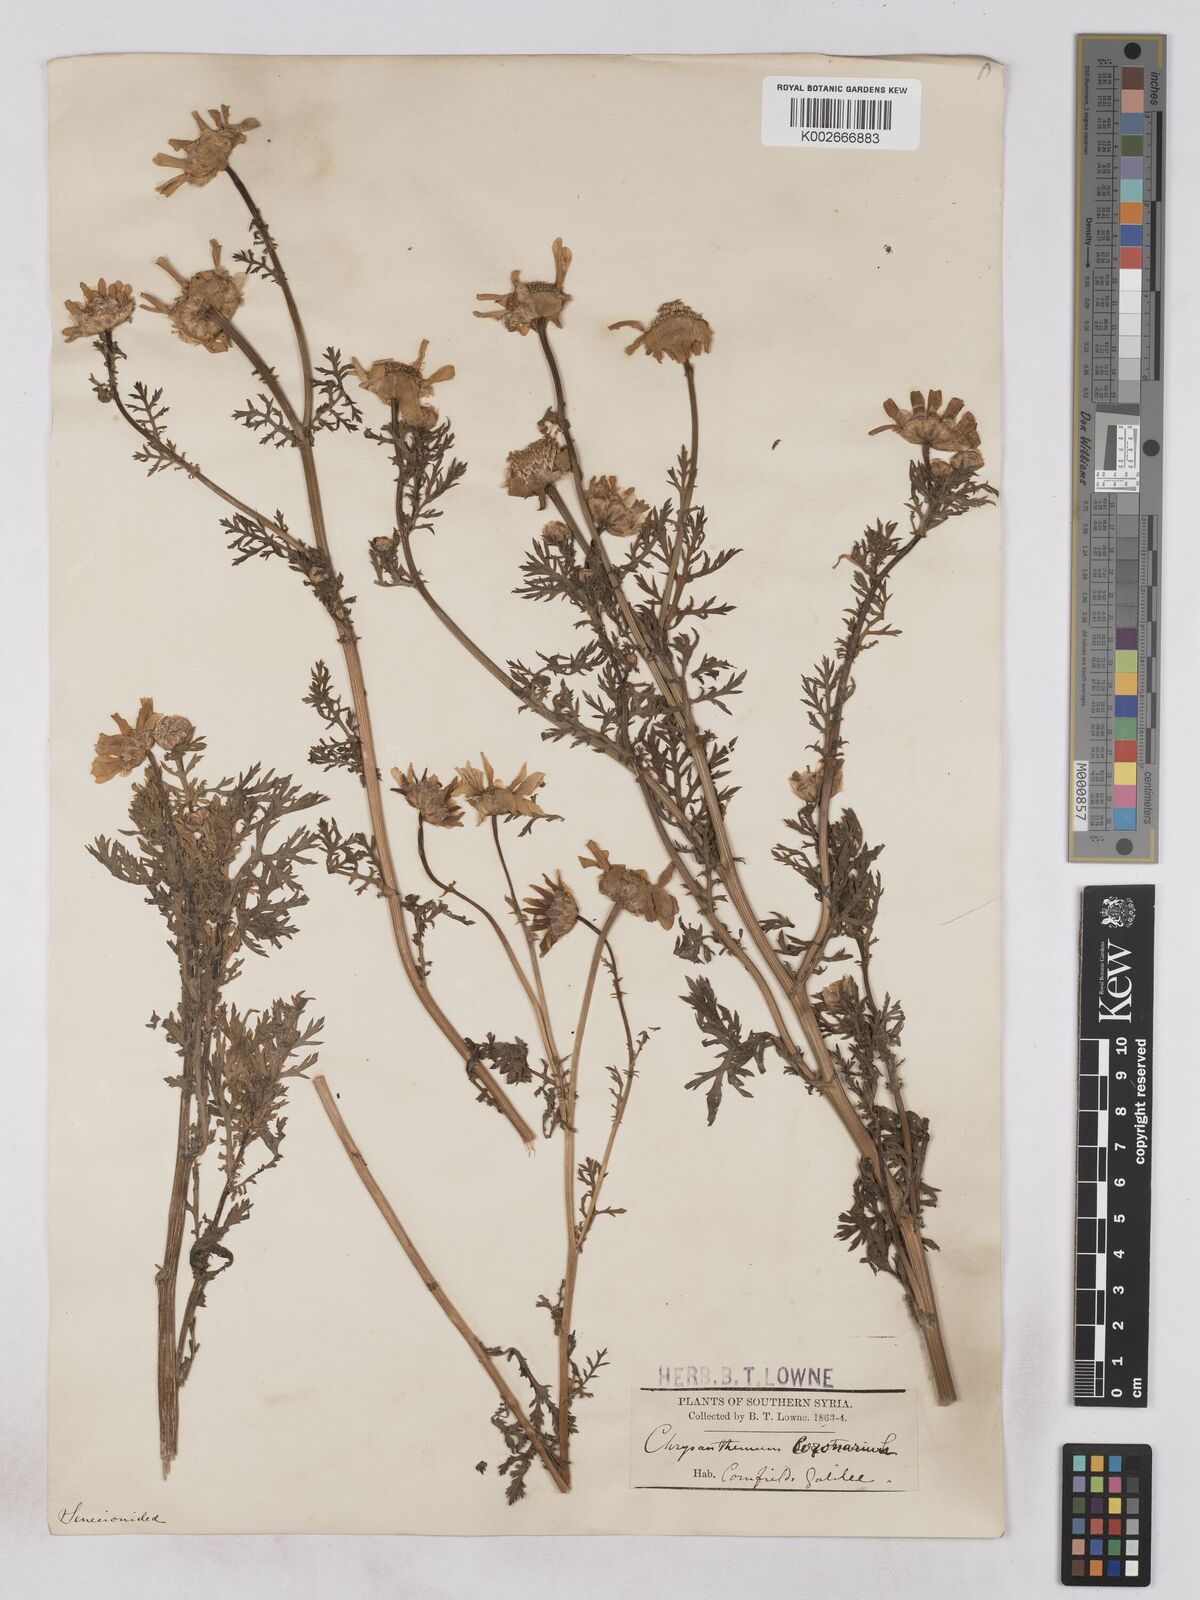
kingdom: Plantae
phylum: Tracheophyta
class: Magnoliopsida
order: Asterales
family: Asteraceae
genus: Glebionis
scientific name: Glebionis coronaria
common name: Crowndaisy
